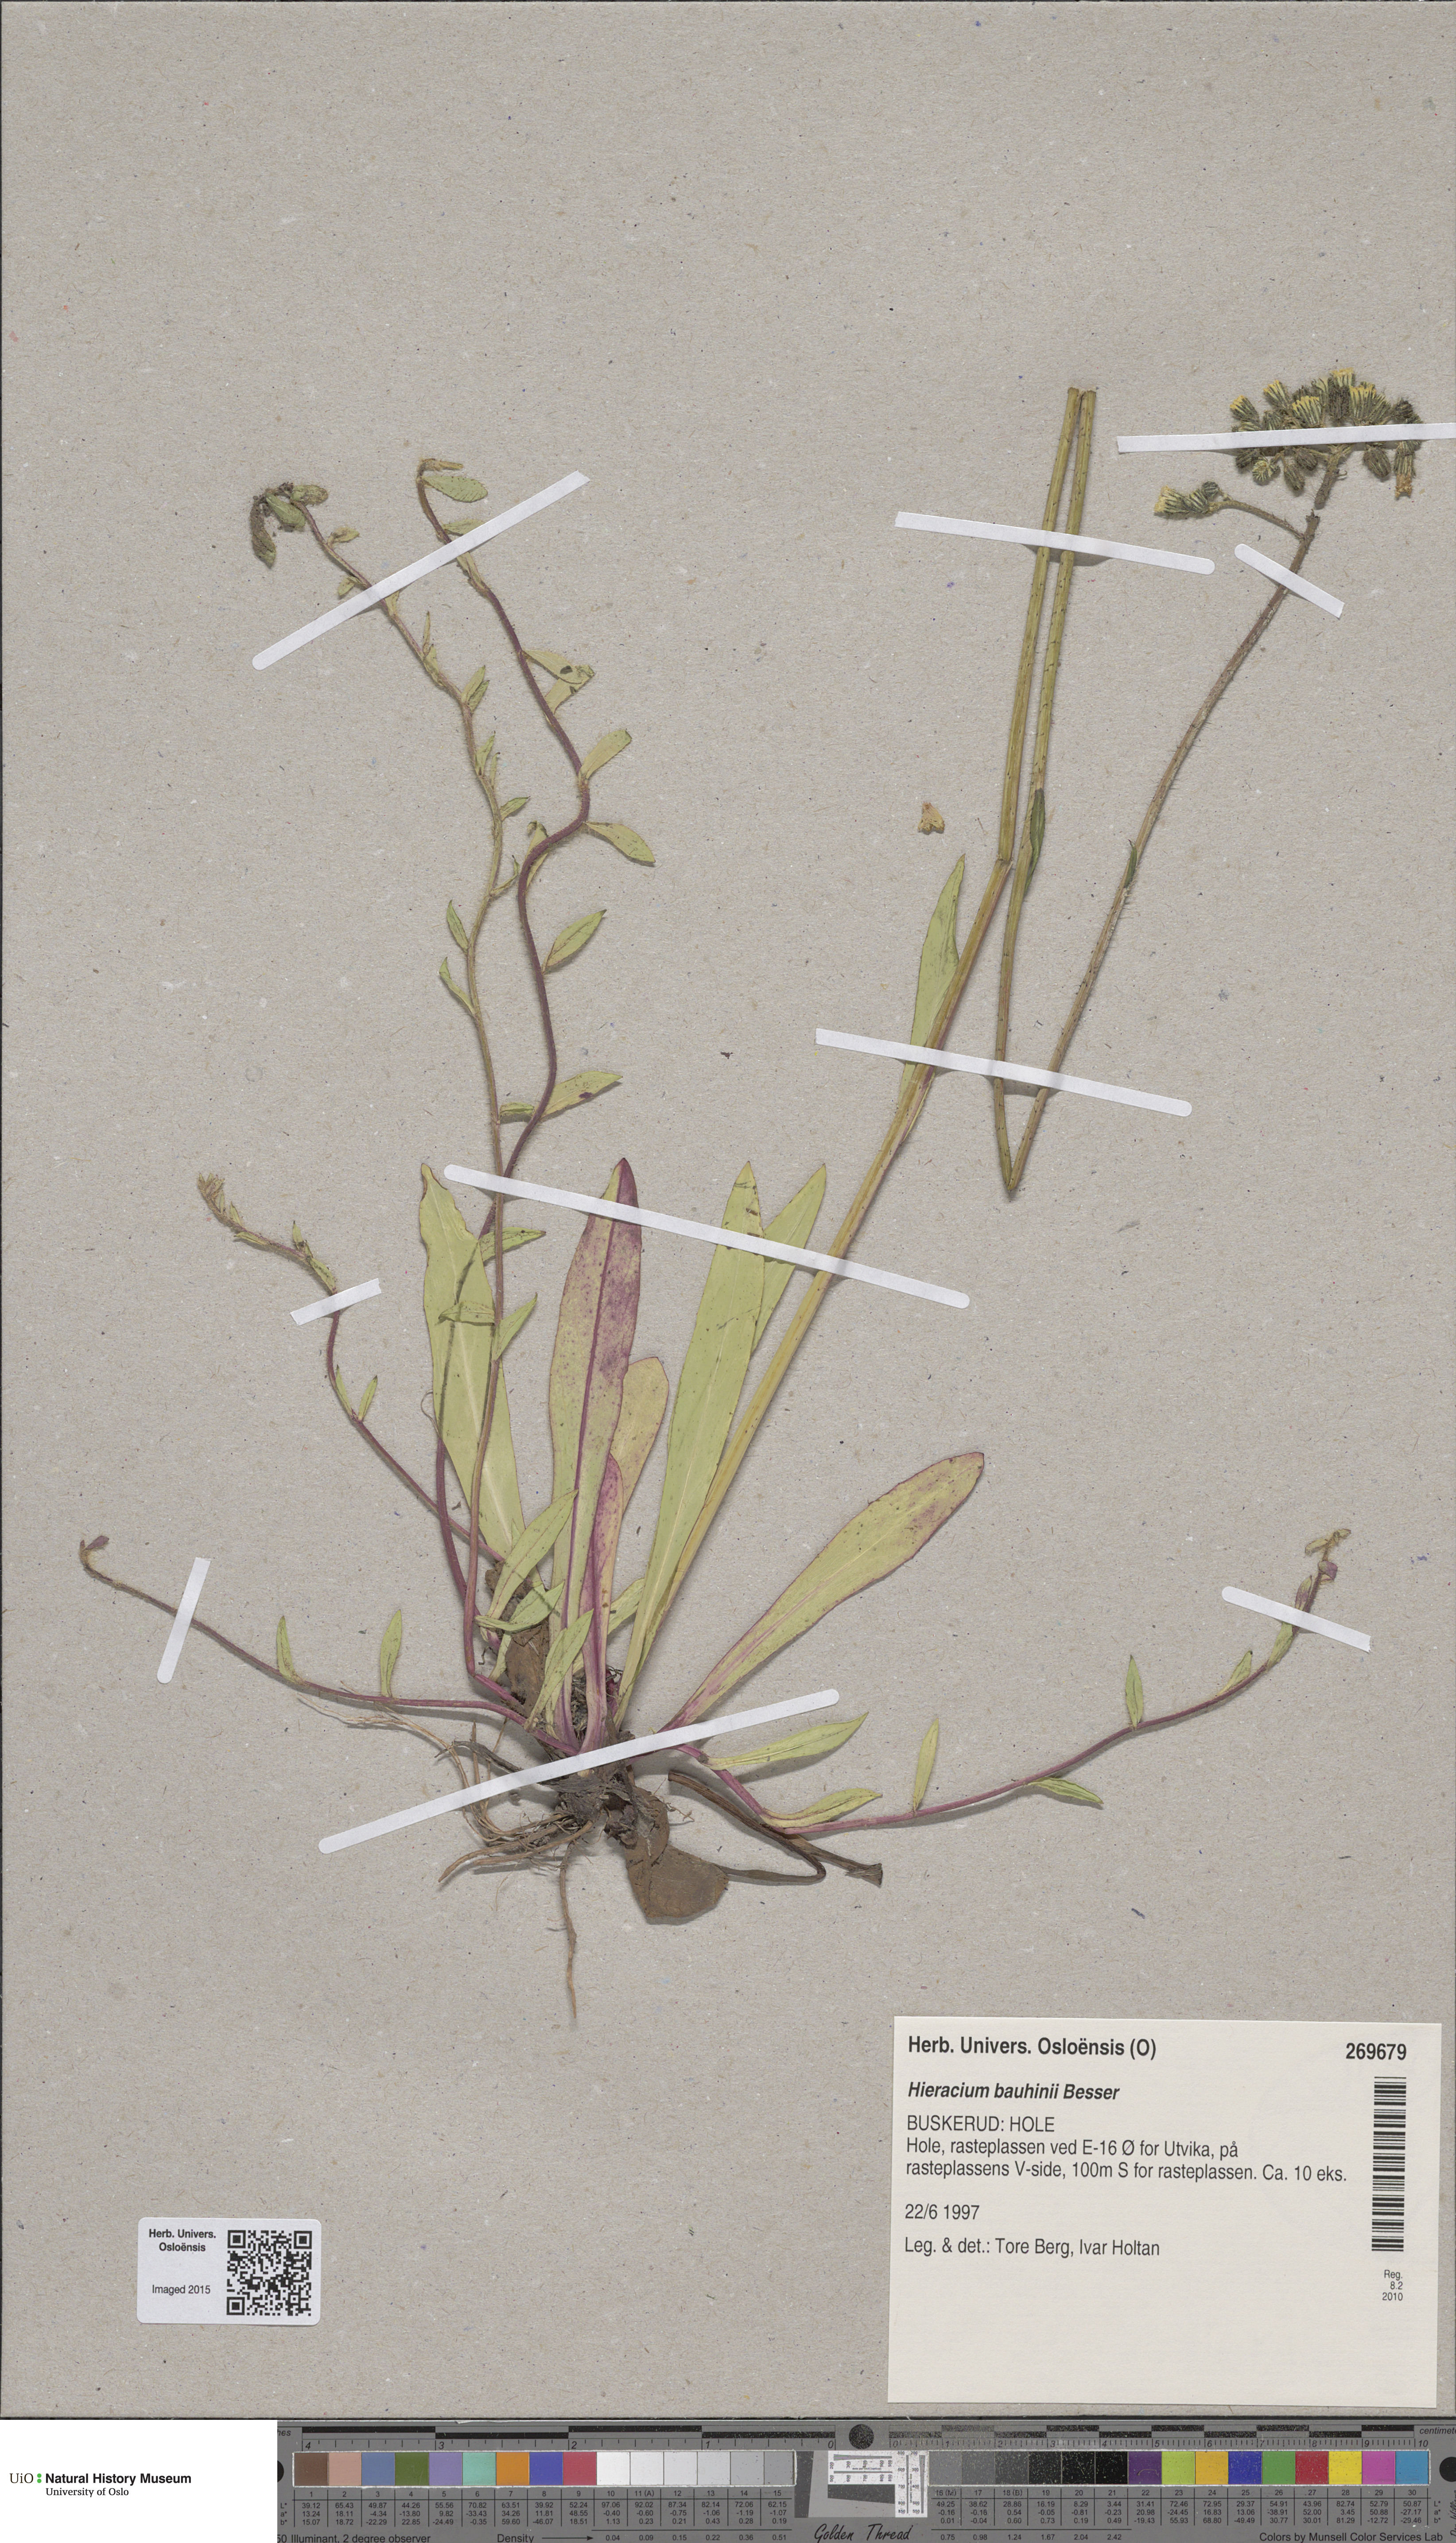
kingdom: Plantae
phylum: Tracheophyta
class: Magnoliopsida
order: Asterales
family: Asteraceae
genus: Pilosella
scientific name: Pilosella bauhini
